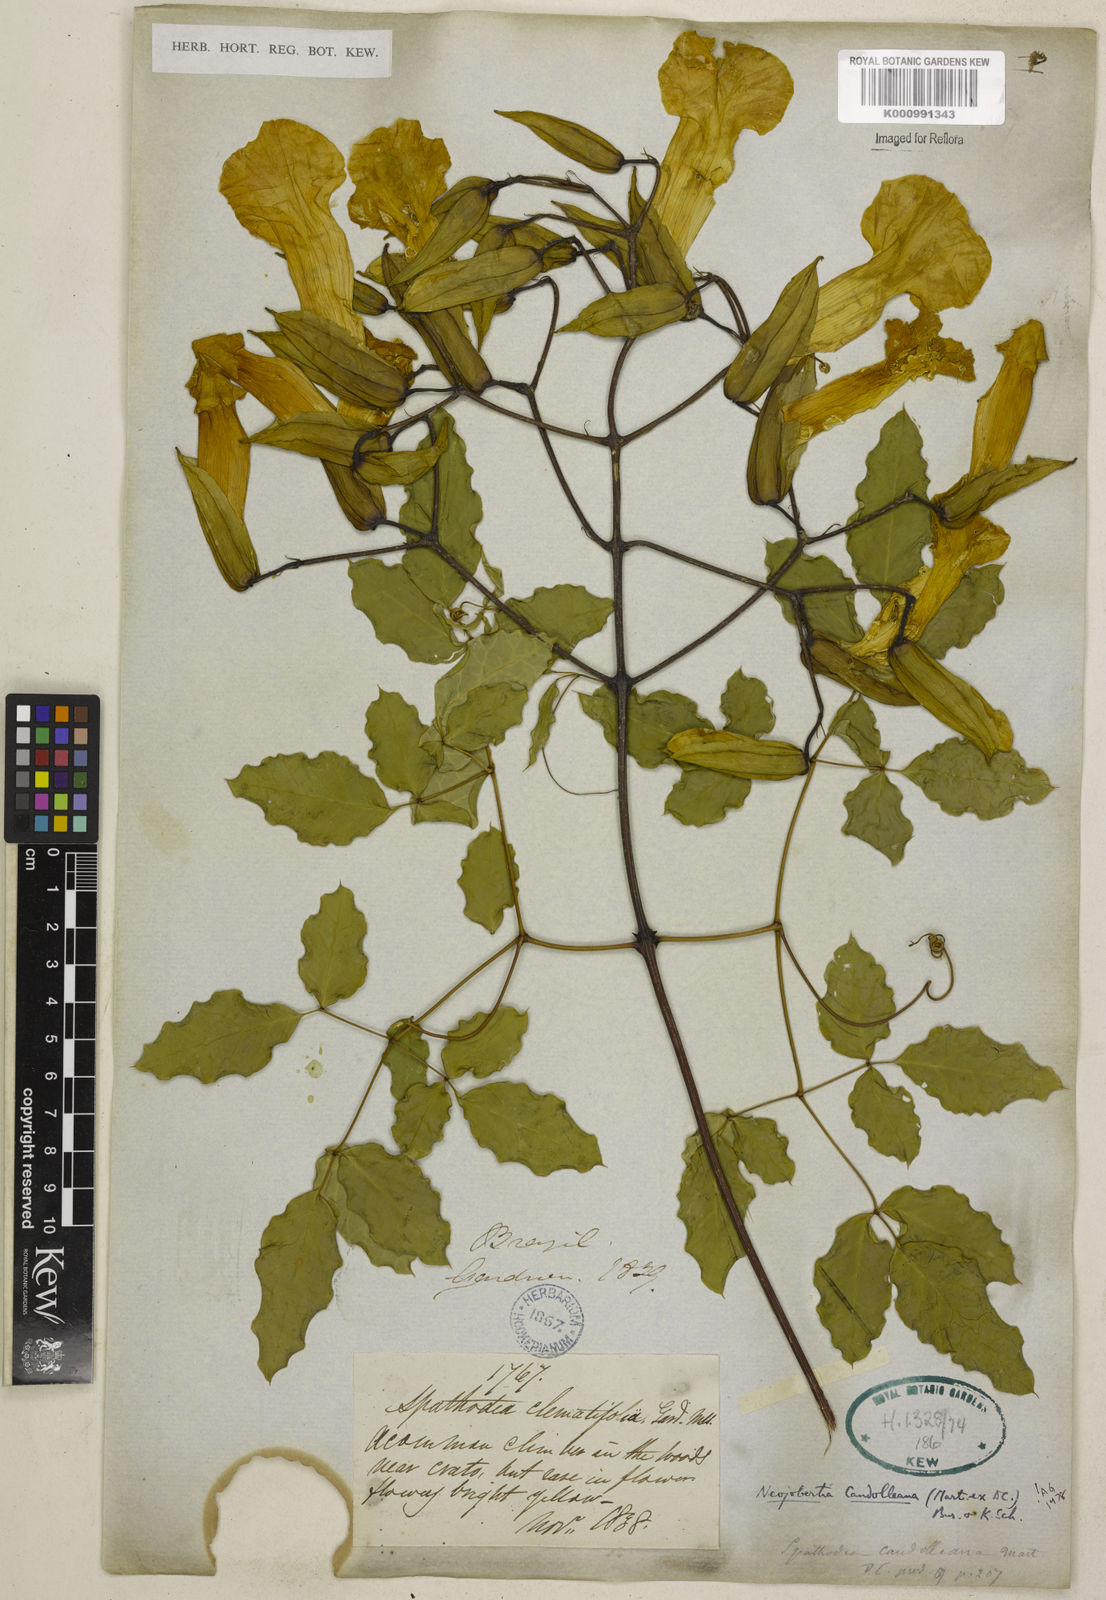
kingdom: Plantae
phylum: Tracheophyta
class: Magnoliopsida
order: Lamiales
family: Bignoniaceae
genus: Adenocalymma
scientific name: Adenocalymma candolleanum
